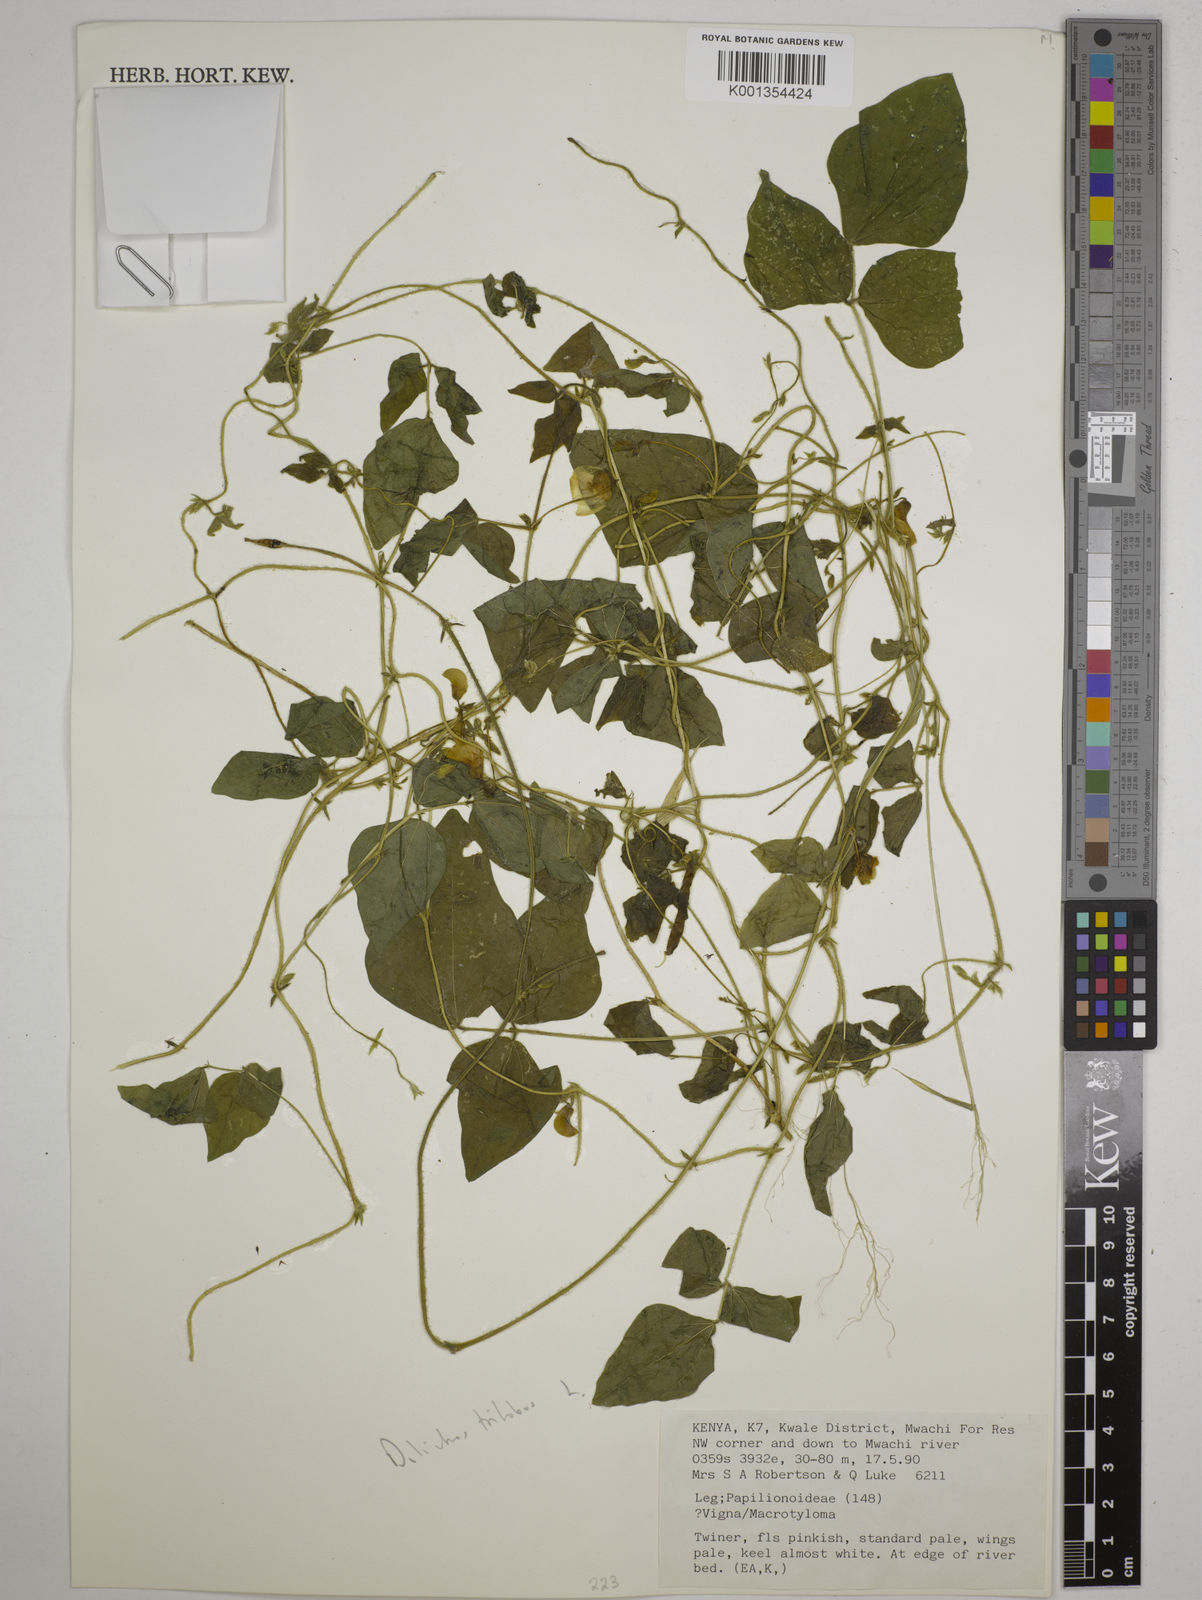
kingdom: Plantae
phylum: Tracheophyta
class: Magnoliopsida
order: Fabales
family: Fabaceae
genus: Dolichos
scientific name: Dolichos
